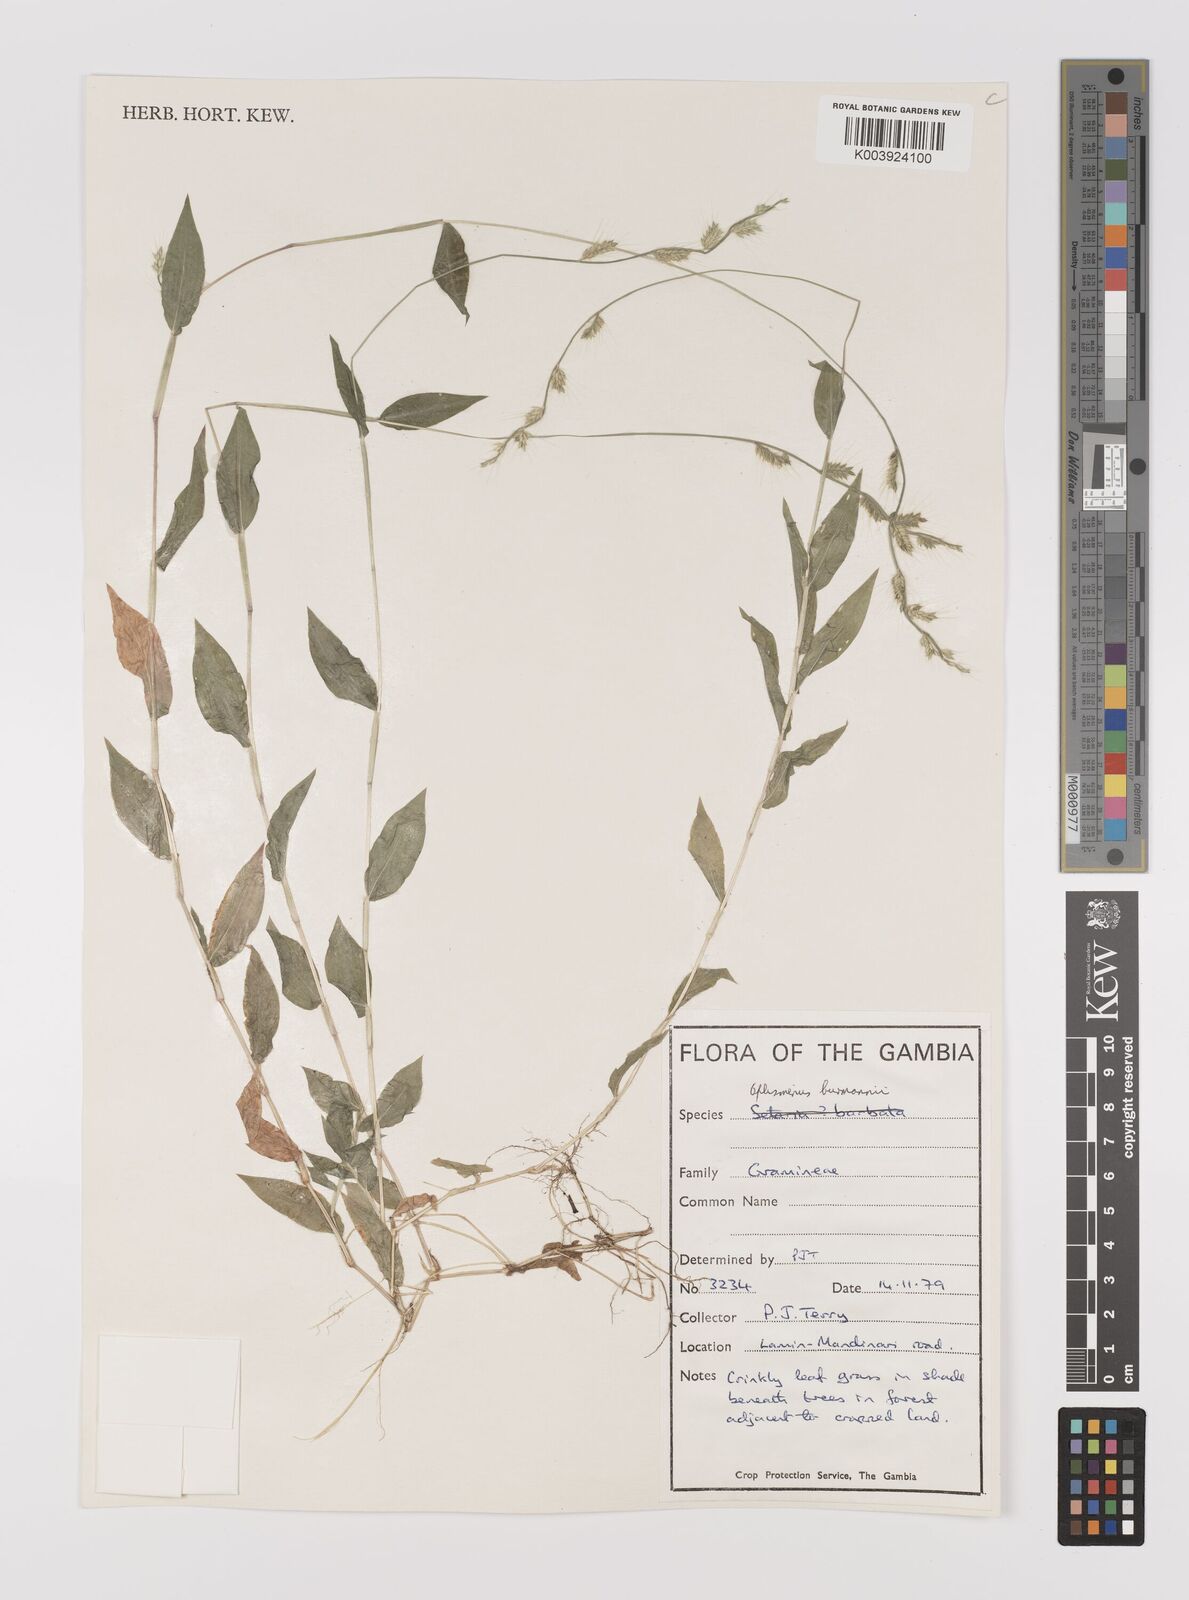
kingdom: Plantae
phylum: Tracheophyta
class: Liliopsida
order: Poales
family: Poaceae
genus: Oplismenus
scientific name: Oplismenus burmanni
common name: Burmann's basketgrass
